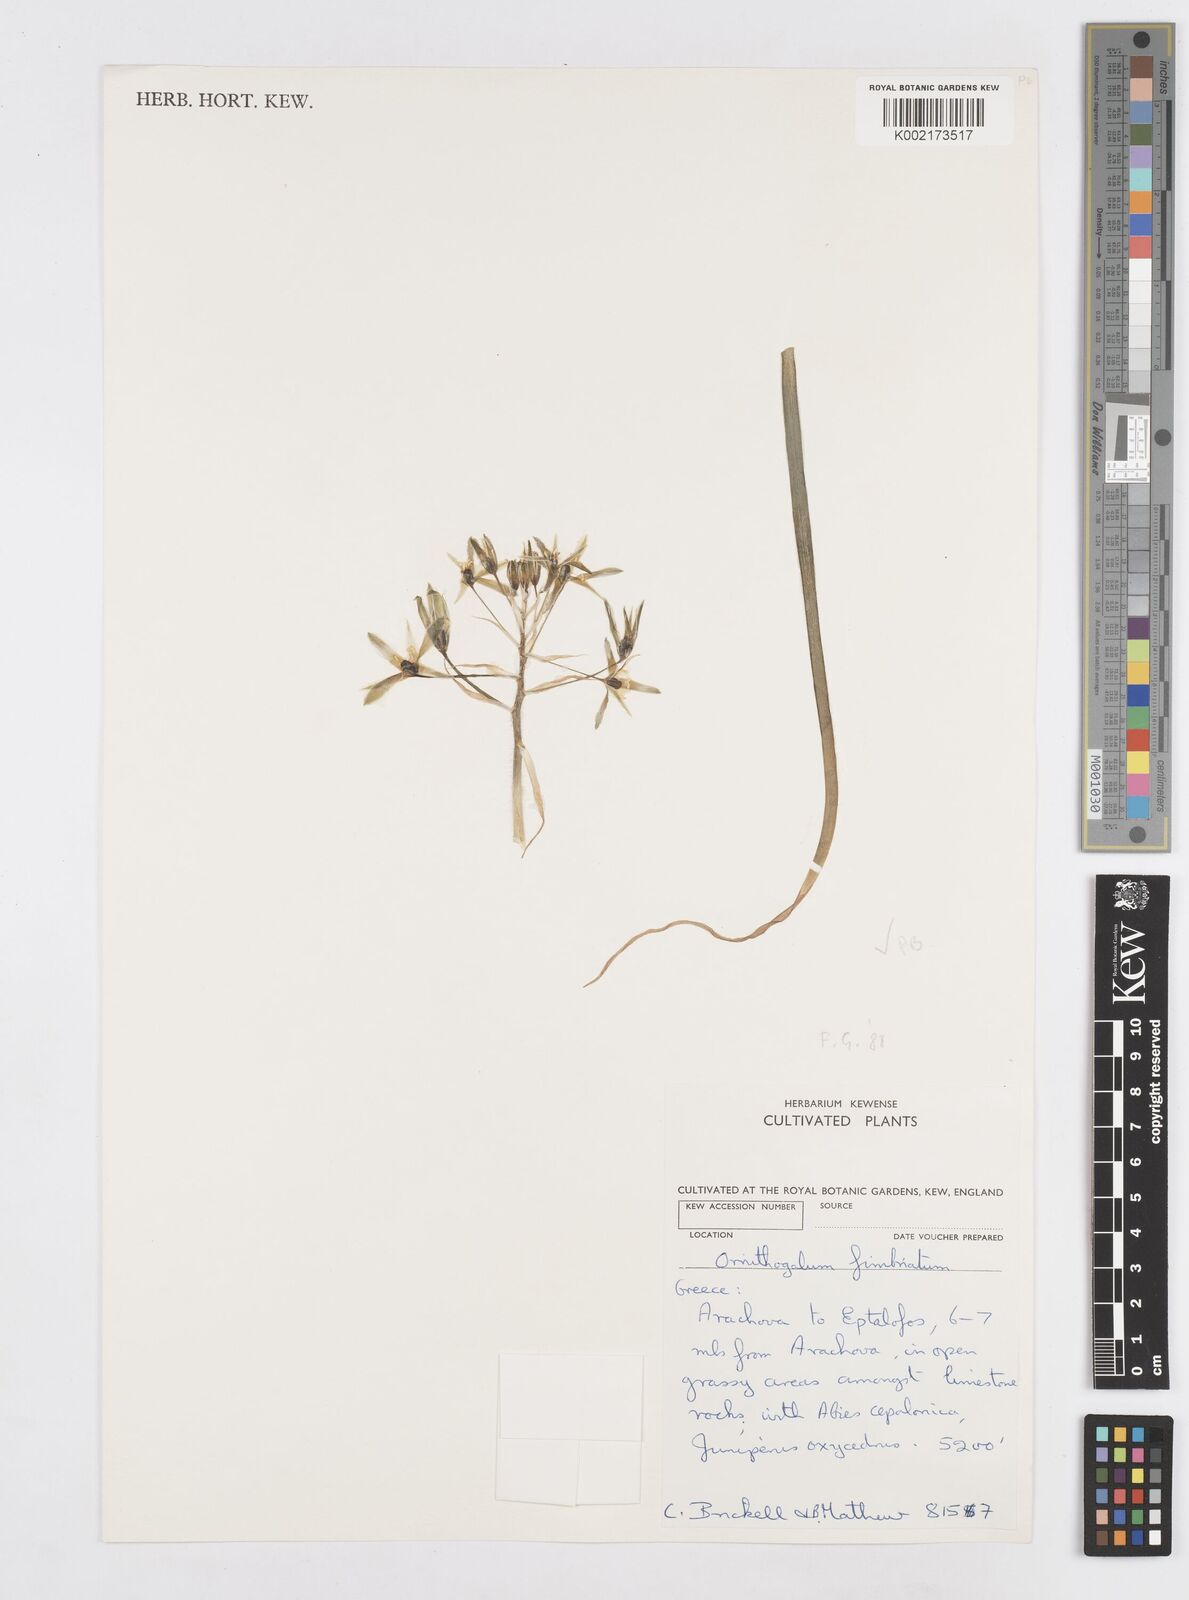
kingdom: Plantae
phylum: Tracheophyta
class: Liliopsida
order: Asparagales
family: Asparagaceae
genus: Ornithogalum
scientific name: Ornithogalum fimbriatum
